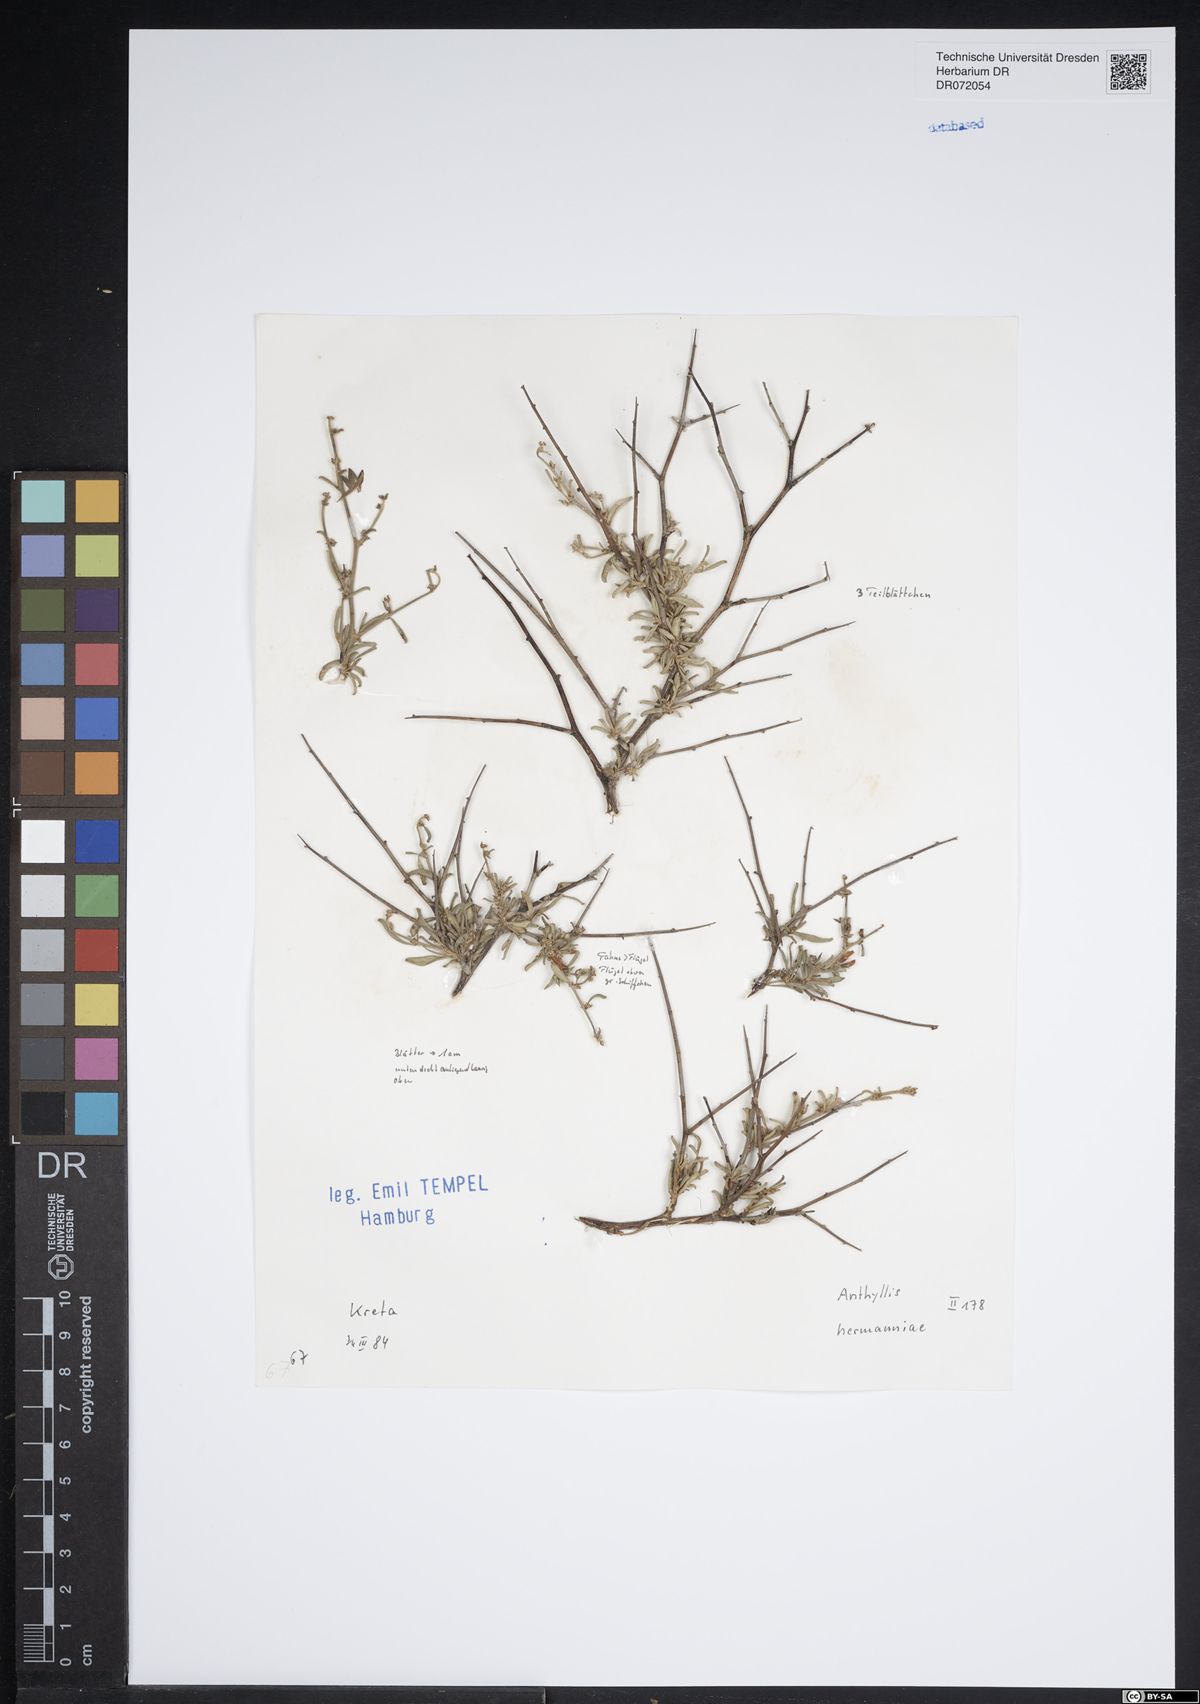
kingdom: Plantae
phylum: Tracheophyta
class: Magnoliopsida
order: Fabales
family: Fabaceae
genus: Anthyllis
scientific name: Anthyllis hermanniae
